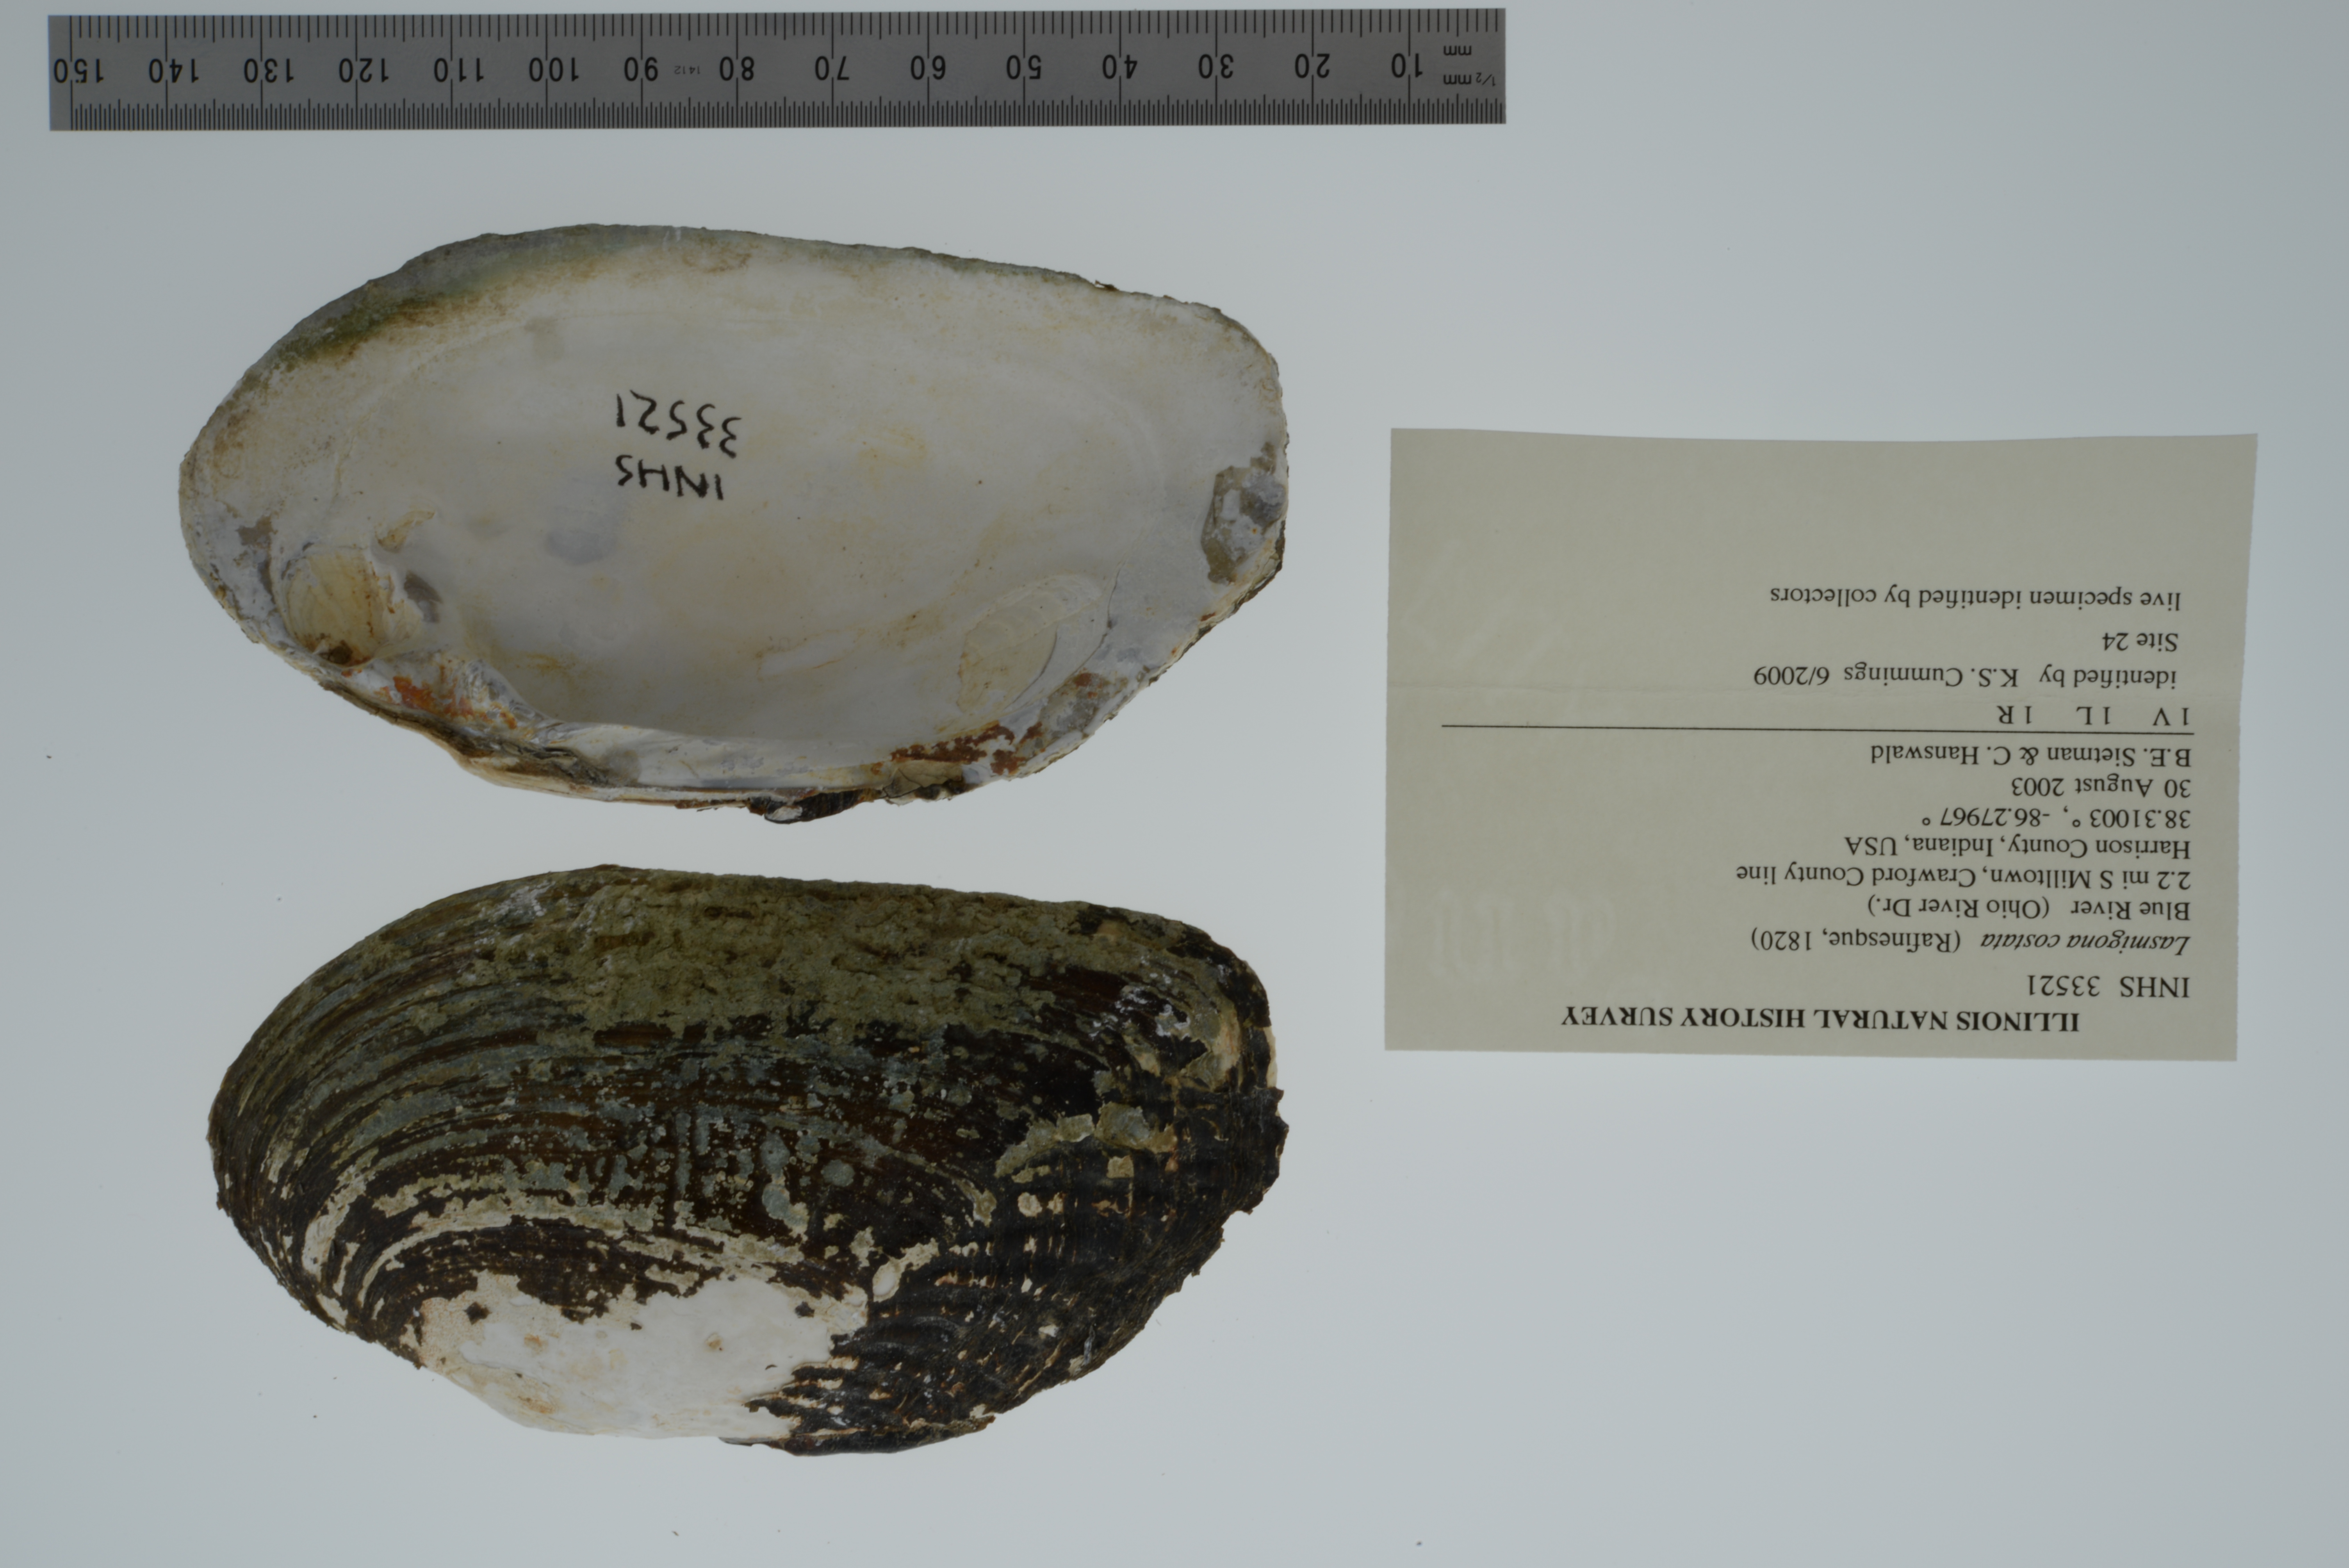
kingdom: Animalia
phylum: Mollusca
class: Bivalvia
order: Unionida
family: Unionidae
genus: Lasmigona
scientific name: Lasmigona costata
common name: Flutedshell
